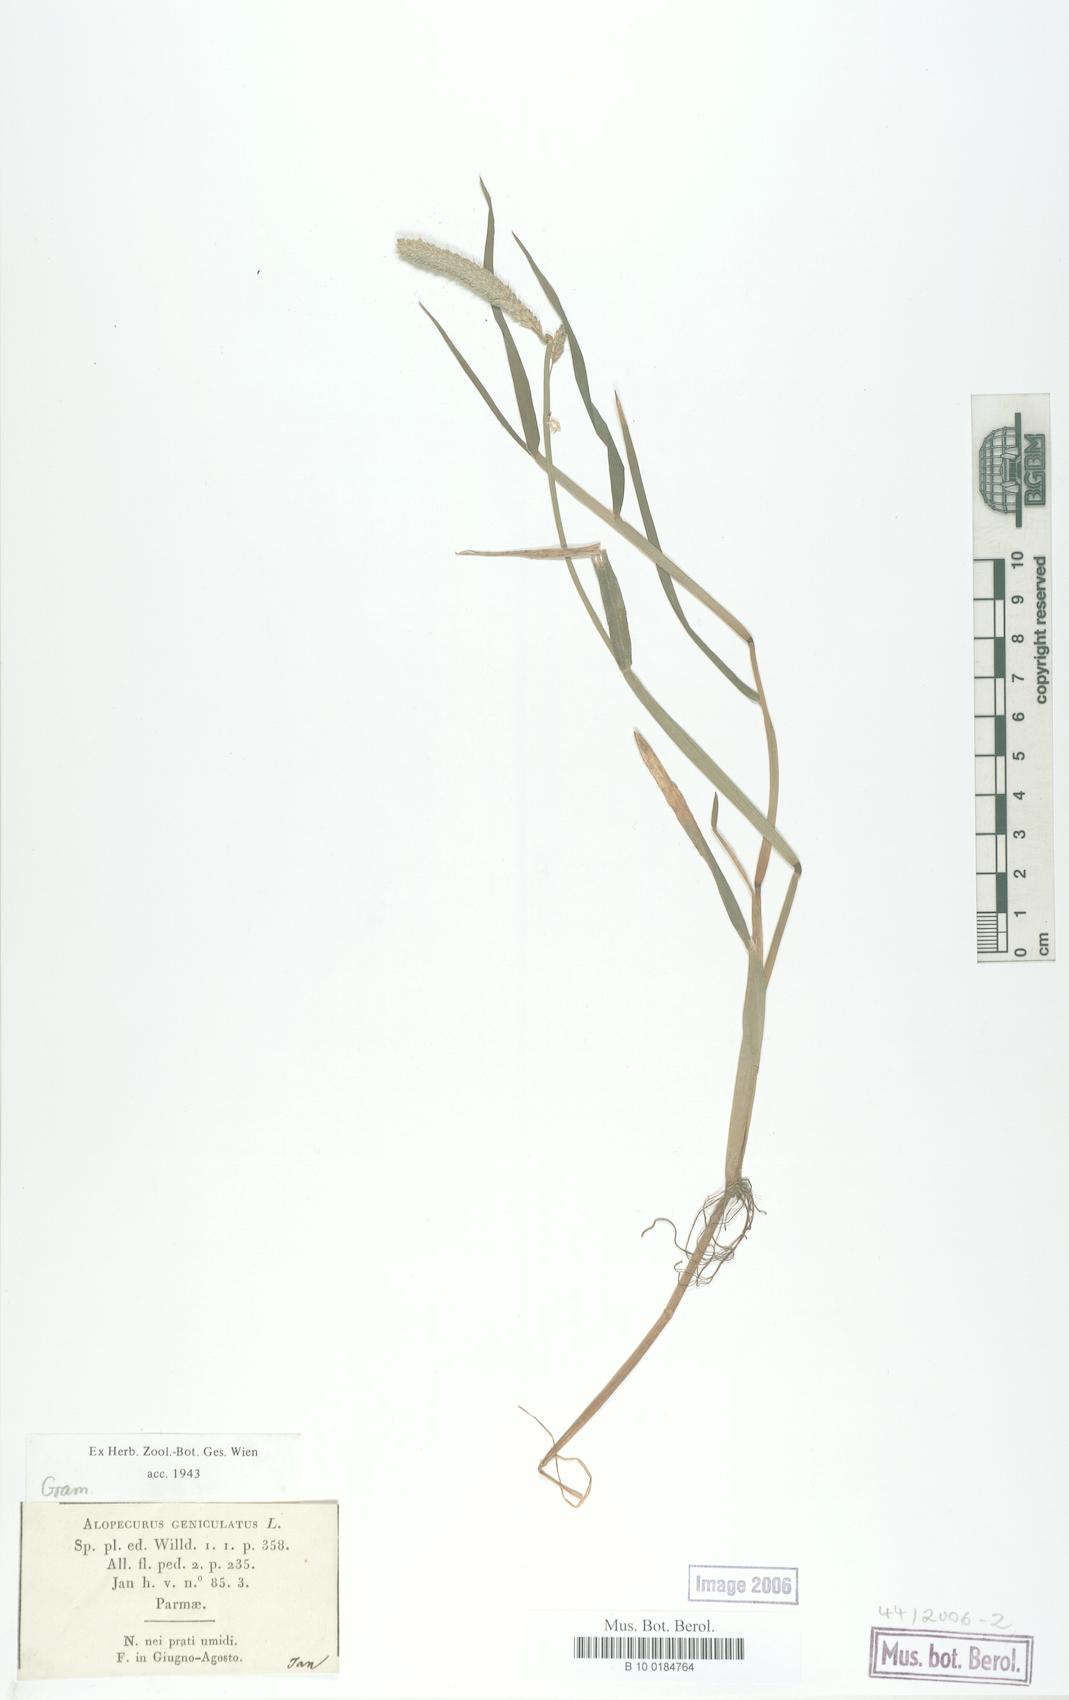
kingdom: Plantae
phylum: Tracheophyta
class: Liliopsida
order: Poales
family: Poaceae
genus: Alopecurus
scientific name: Alopecurus geniculatus
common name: Water foxtail
